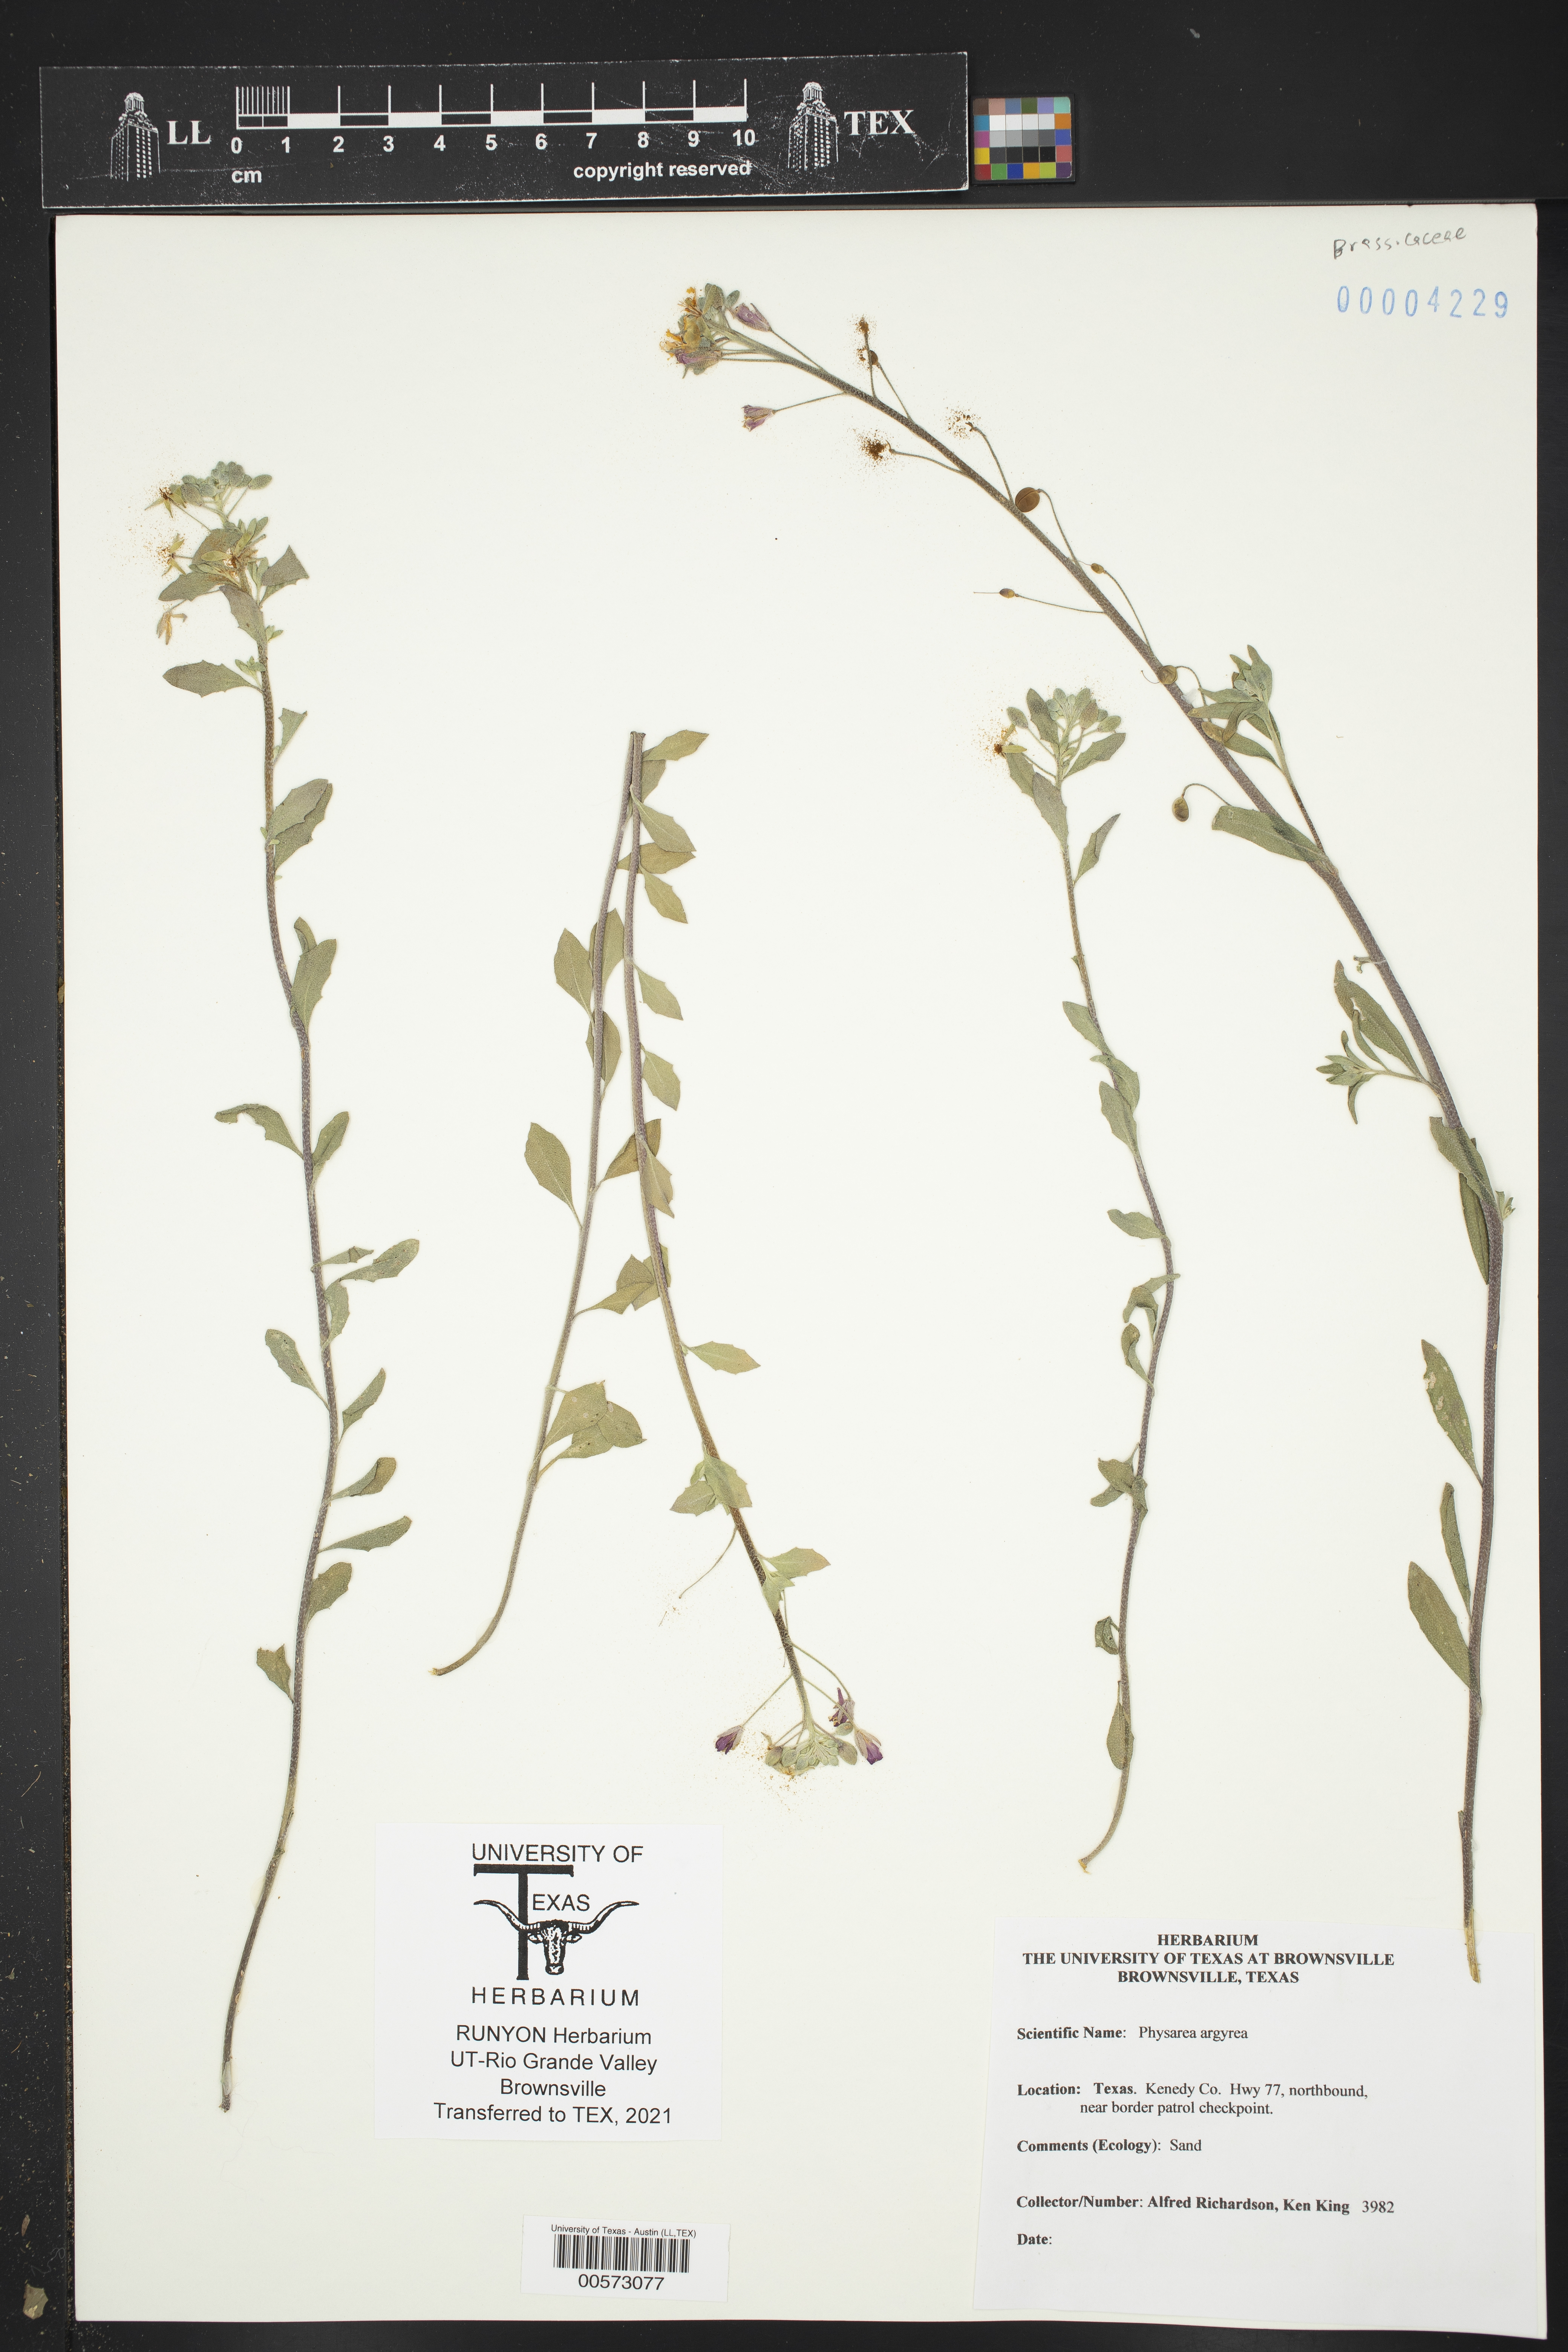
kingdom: Plantae
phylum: Tracheophyta
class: Magnoliopsida
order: Brassicales
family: Brassicaceae
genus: Physaria
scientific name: Physaria argyraea
